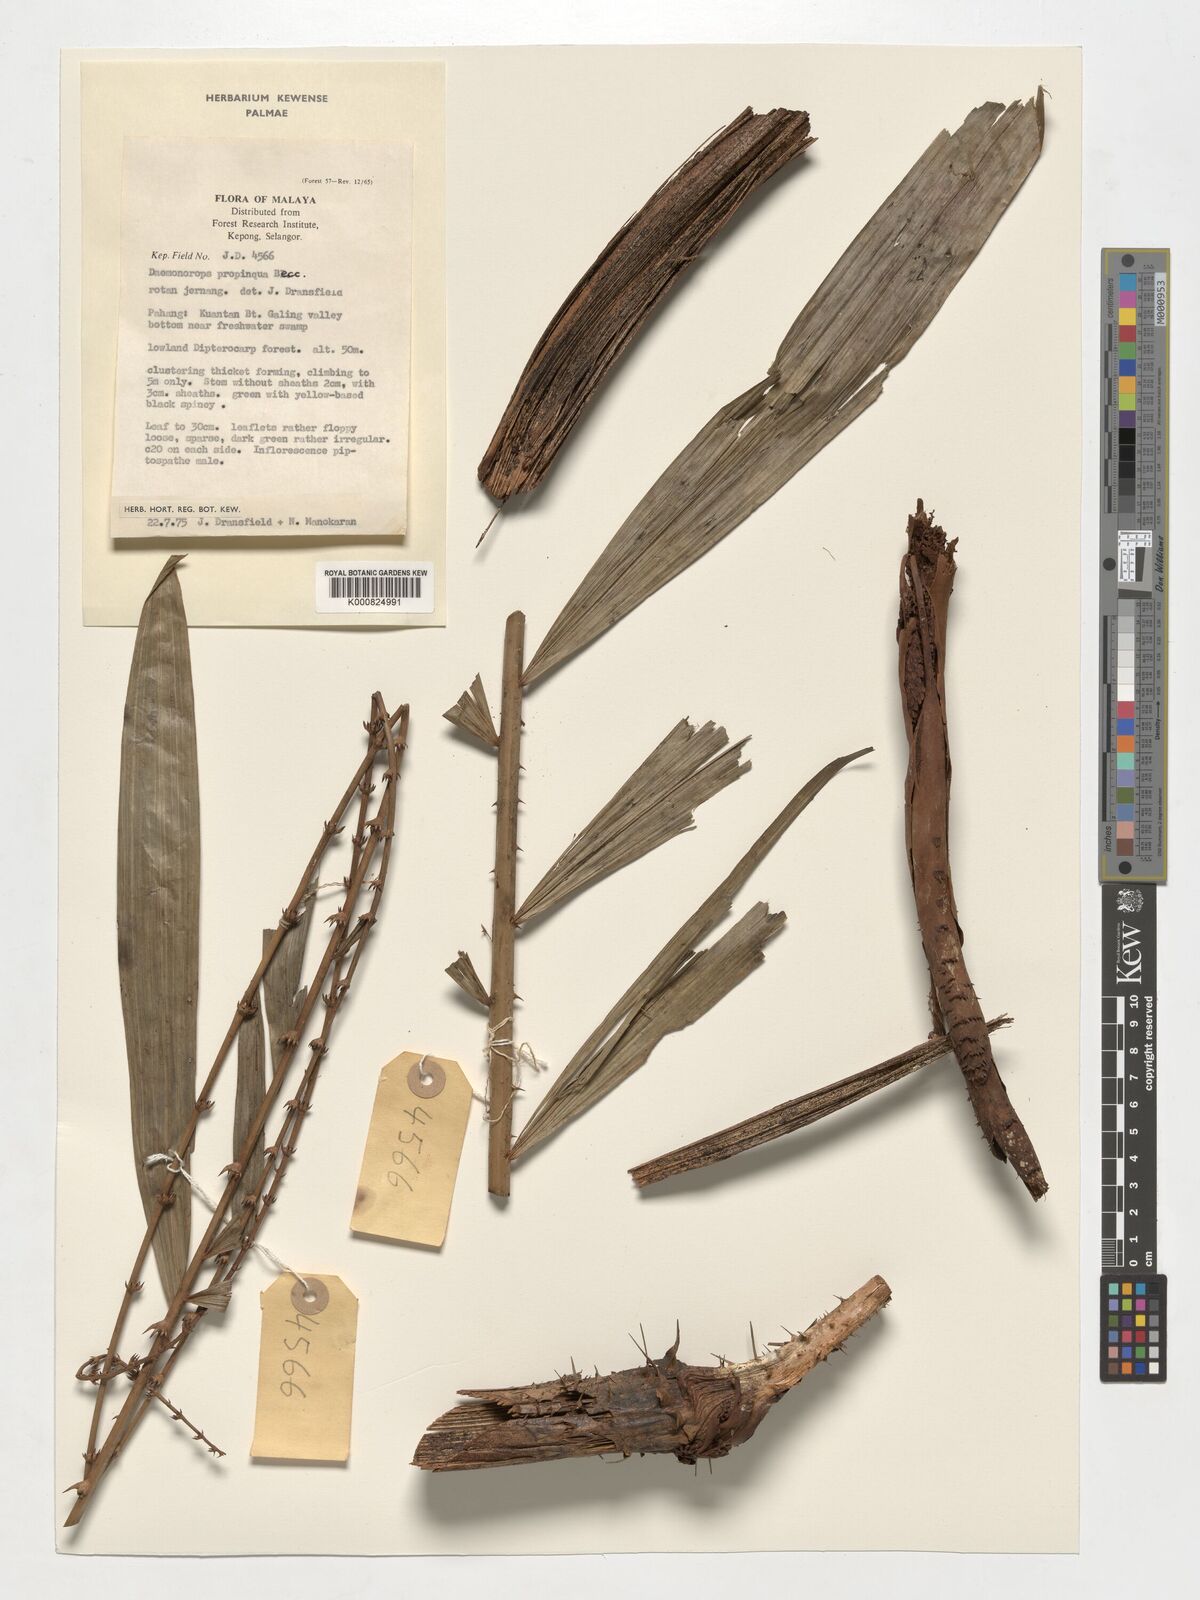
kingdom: Plantae
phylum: Tracheophyta
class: Liliopsida
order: Arecales
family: Arecaceae
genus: Calamus
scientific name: Calamus propinquus
